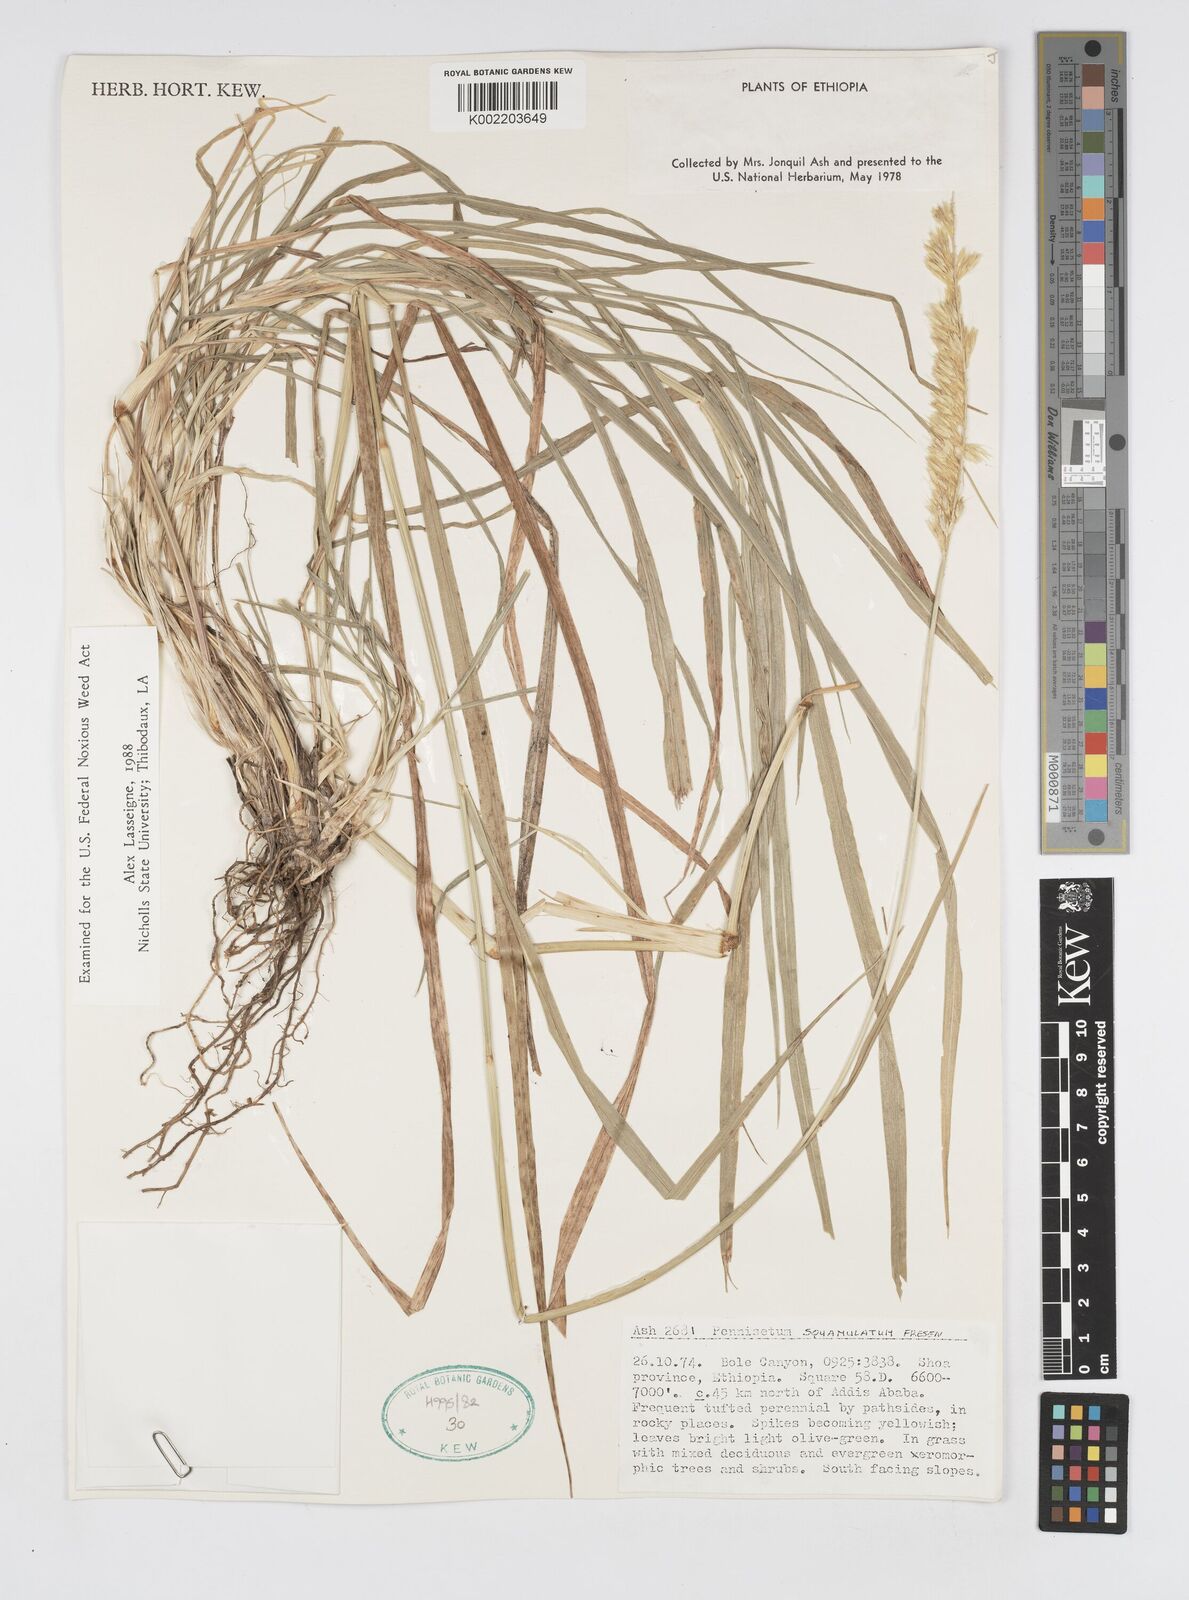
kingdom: Plantae
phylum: Tracheophyta
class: Liliopsida
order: Poales
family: Poaceae
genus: Cenchrus
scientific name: Cenchrus squamulatus
